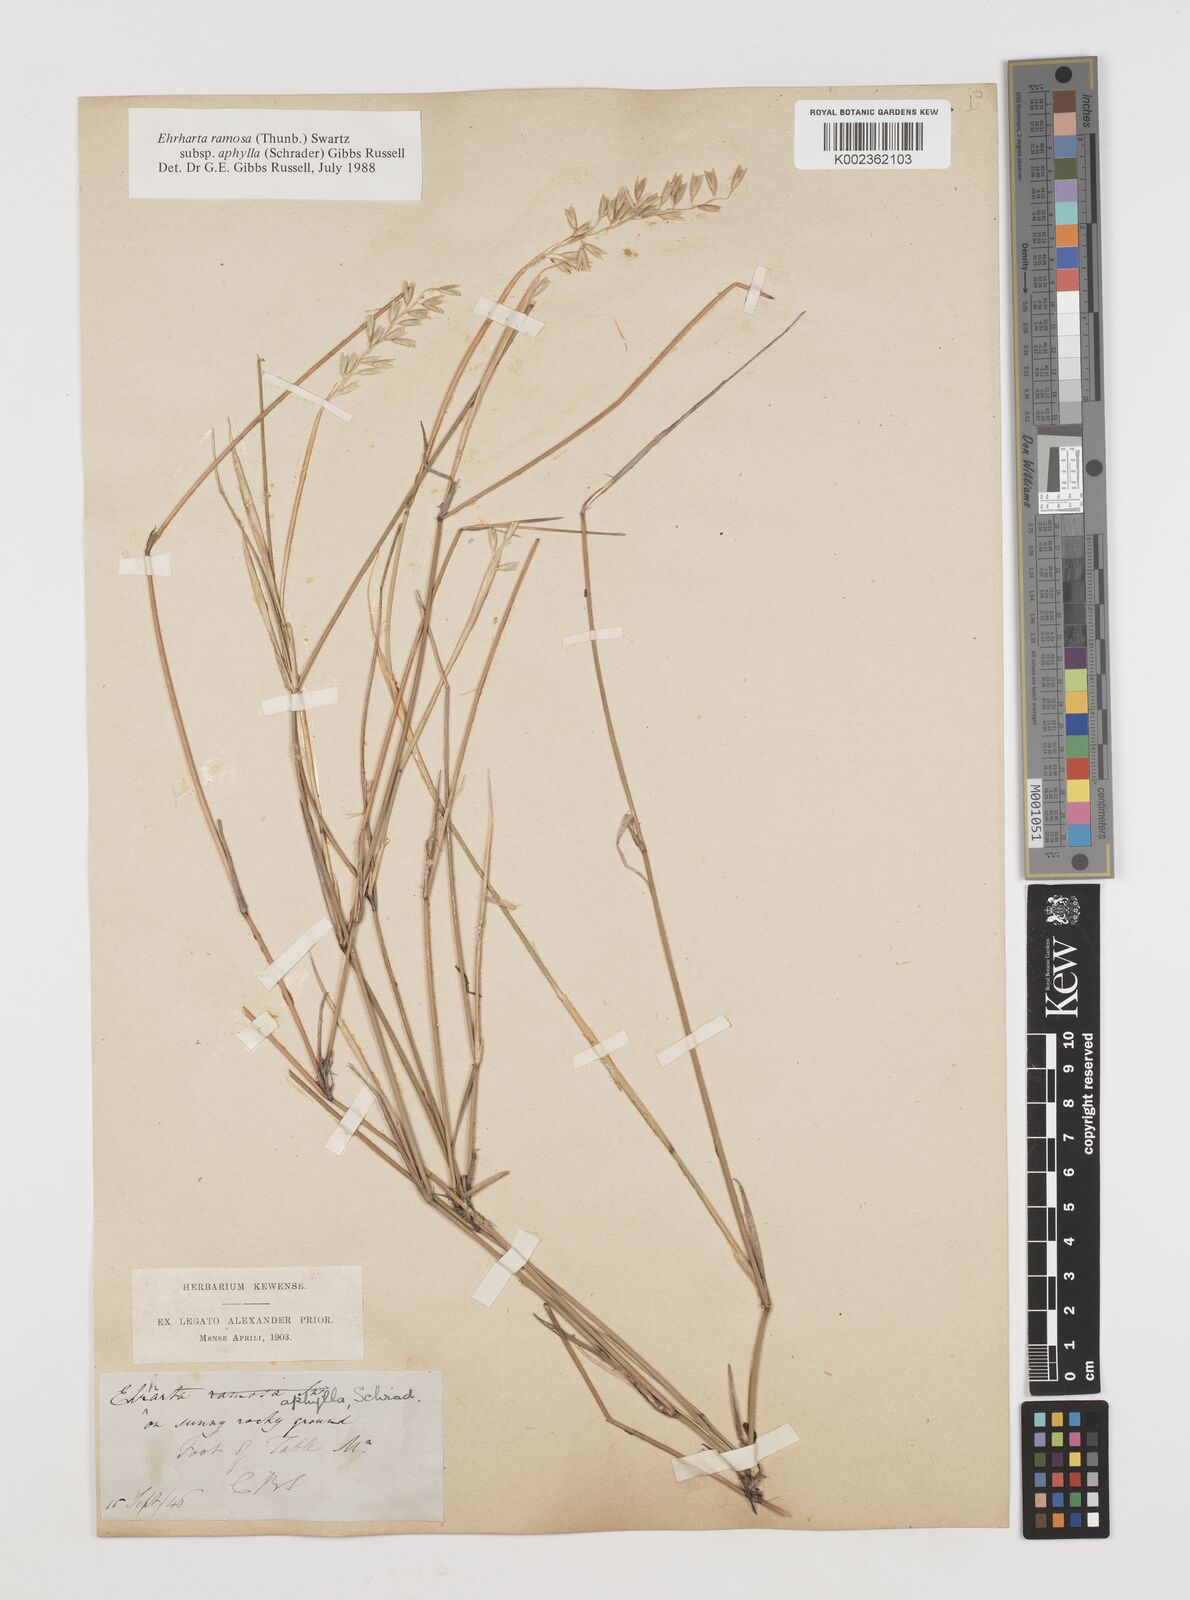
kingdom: Plantae
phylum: Tracheophyta
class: Liliopsida
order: Poales
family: Poaceae
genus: Ehrharta
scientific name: Ehrharta digyna
